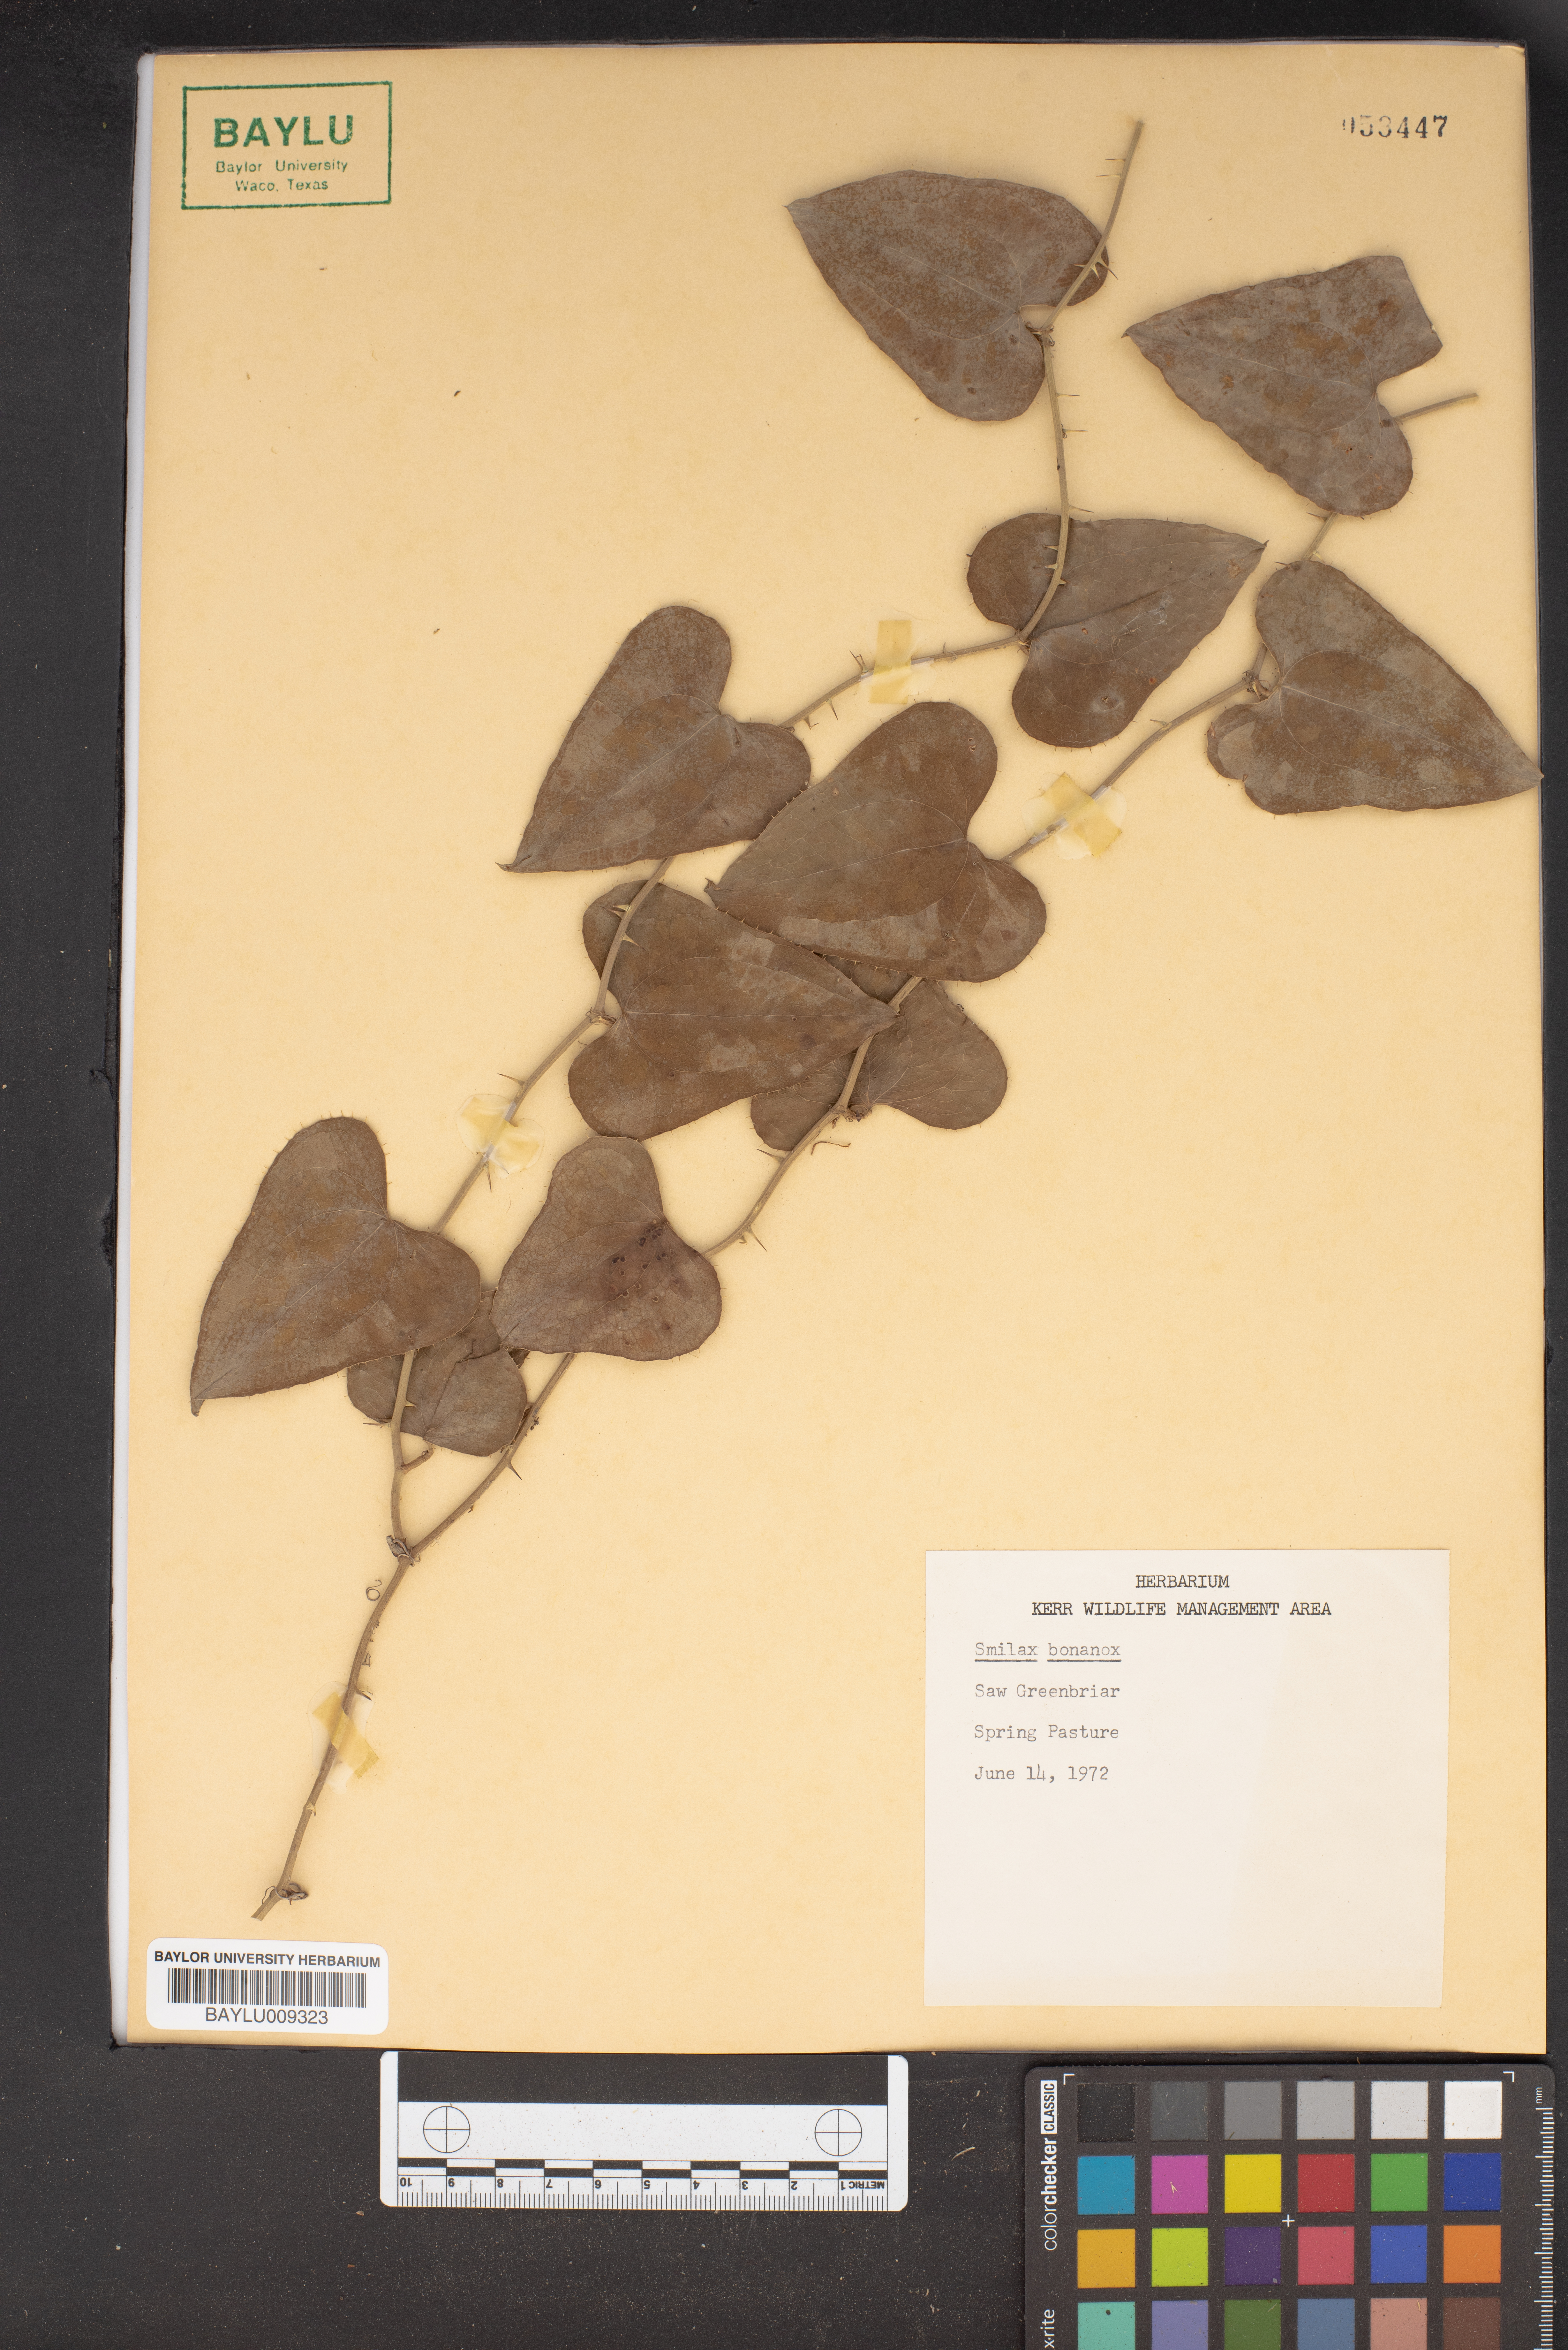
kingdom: Plantae
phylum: Tracheophyta
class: Liliopsida
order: Liliales
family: Smilacaceae
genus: Smilax
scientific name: Smilax bona-nox
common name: Catbrier
